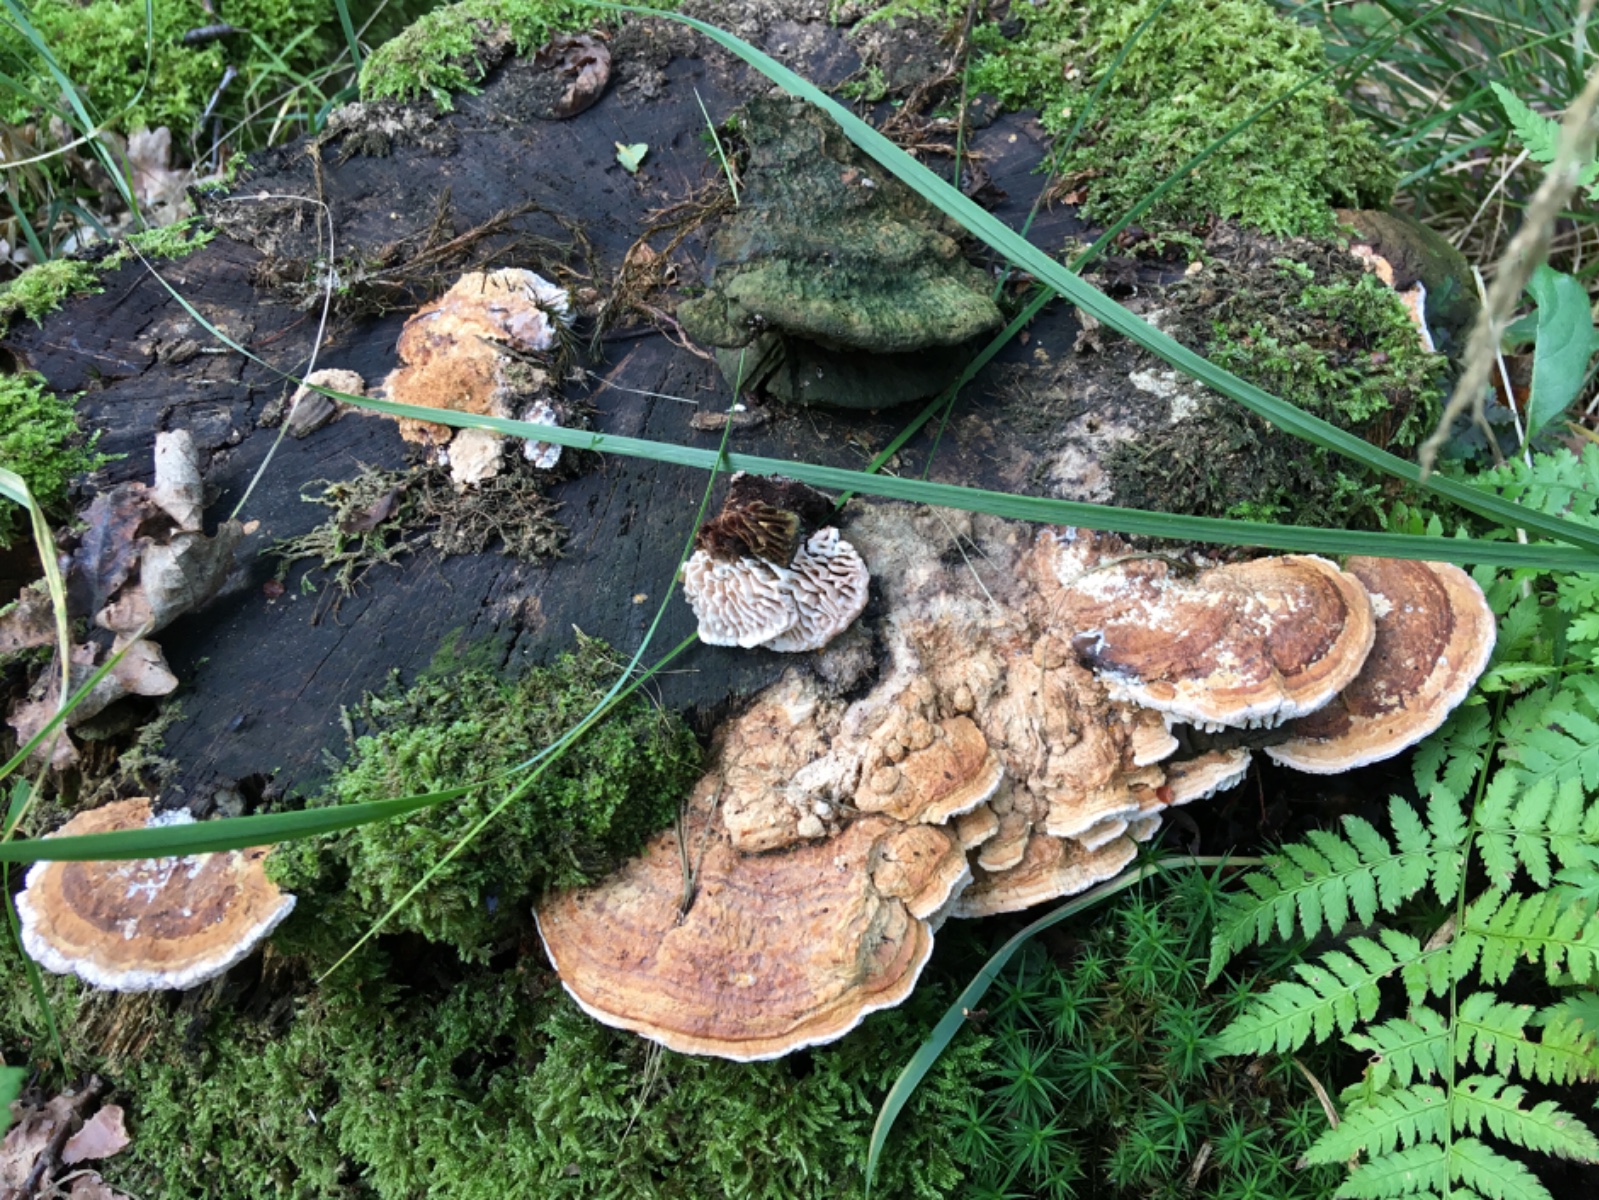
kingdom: Fungi
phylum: Basidiomycota
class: Agaricomycetes
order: Polyporales
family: Fomitopsidaceae
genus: Daedalea
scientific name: Daedalea quercina
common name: ege-labyrintsvamp
